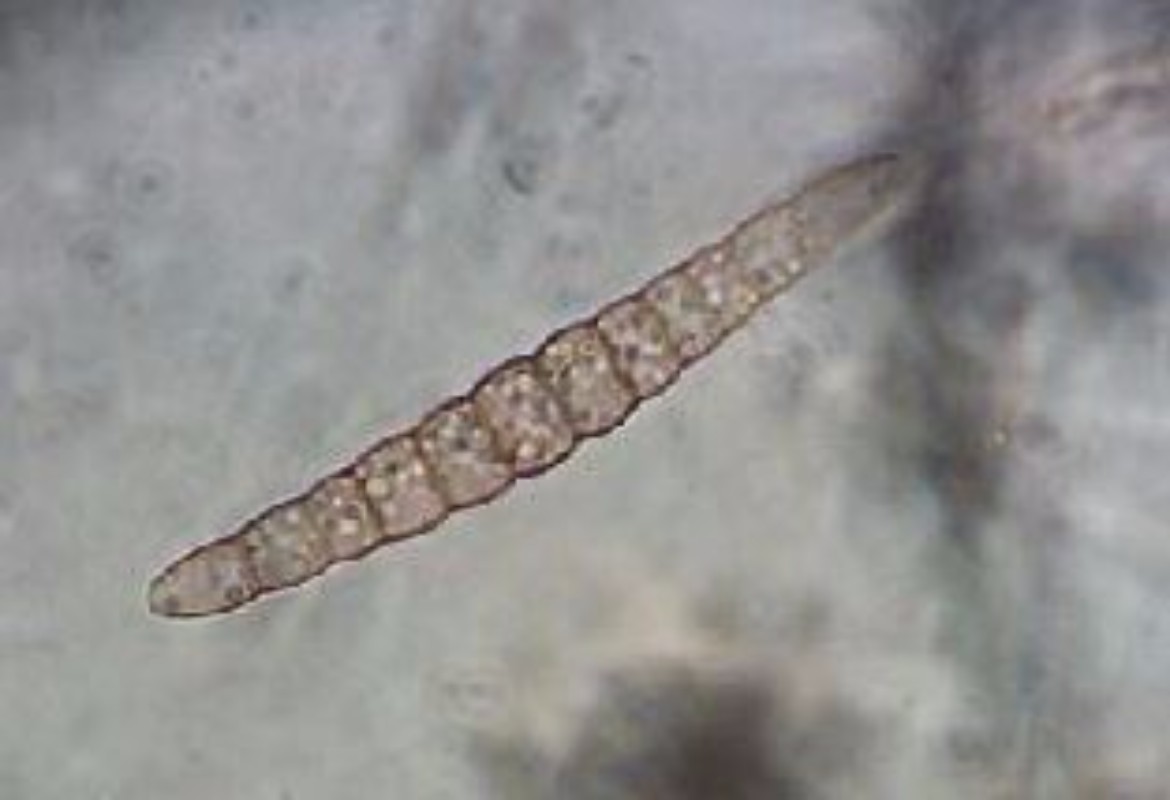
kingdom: Fungi
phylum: Ascomycota
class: Dothideomycetes
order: Pleosporales
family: Leptosphaeriaceae
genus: Leptosphaeria
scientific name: Leptosphaeria acuta
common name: spids kulkegle
